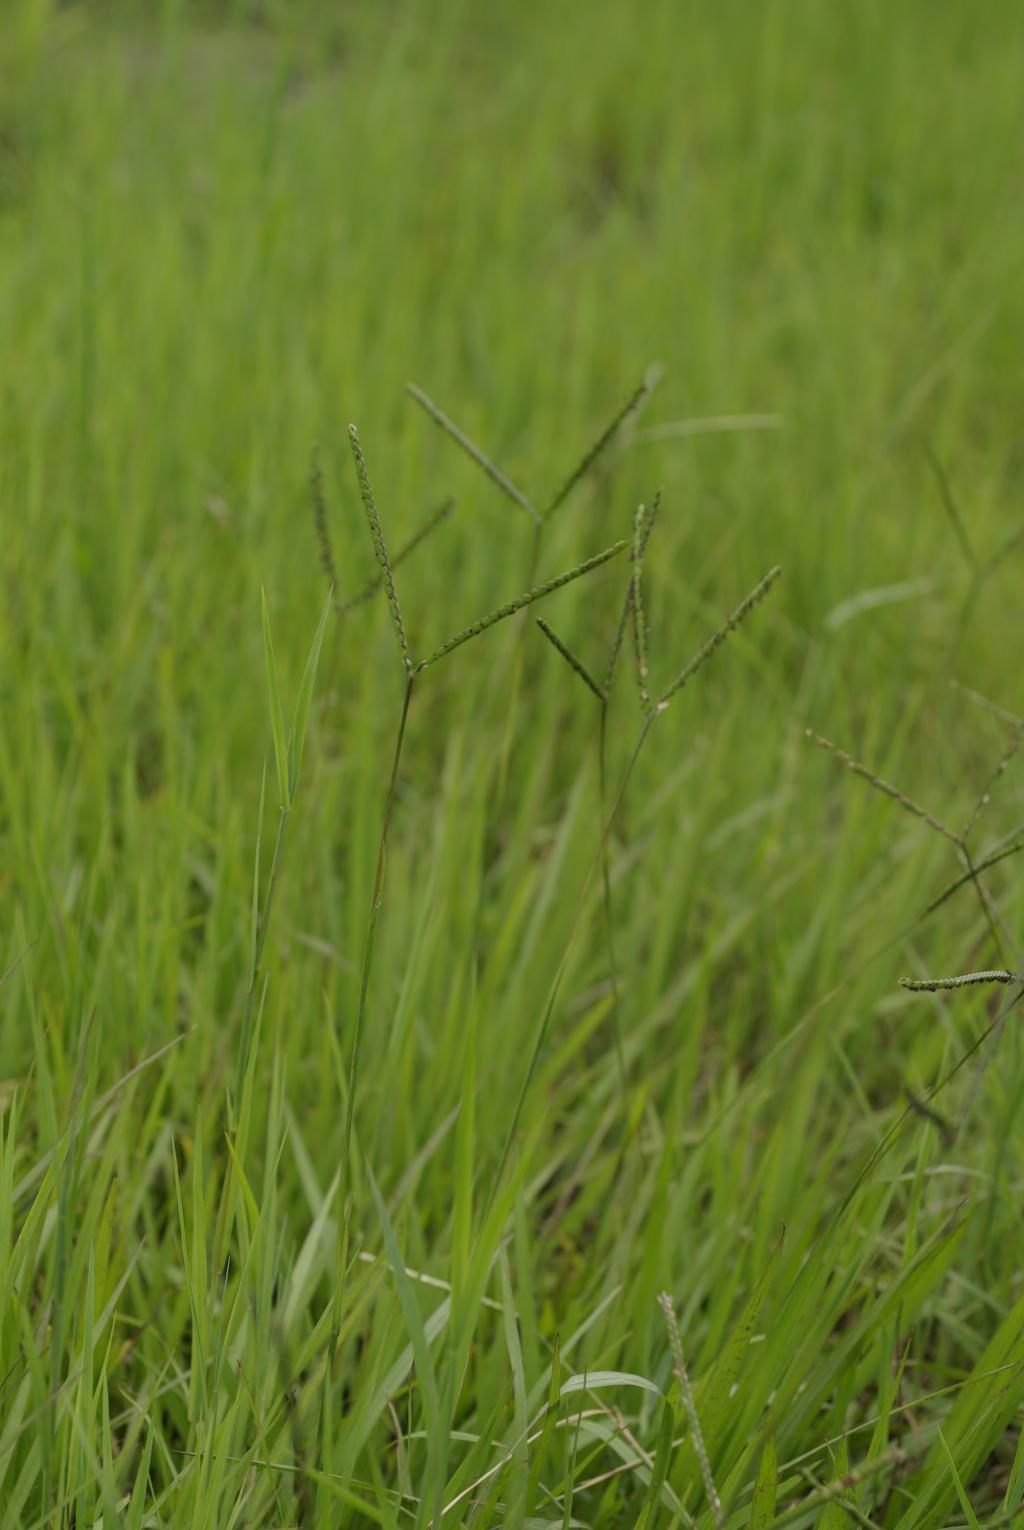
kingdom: Plantae
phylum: Tracheophyta
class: Liliopsida
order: Poales
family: Poaceae
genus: Paspalum
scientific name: Paspalum notatum
